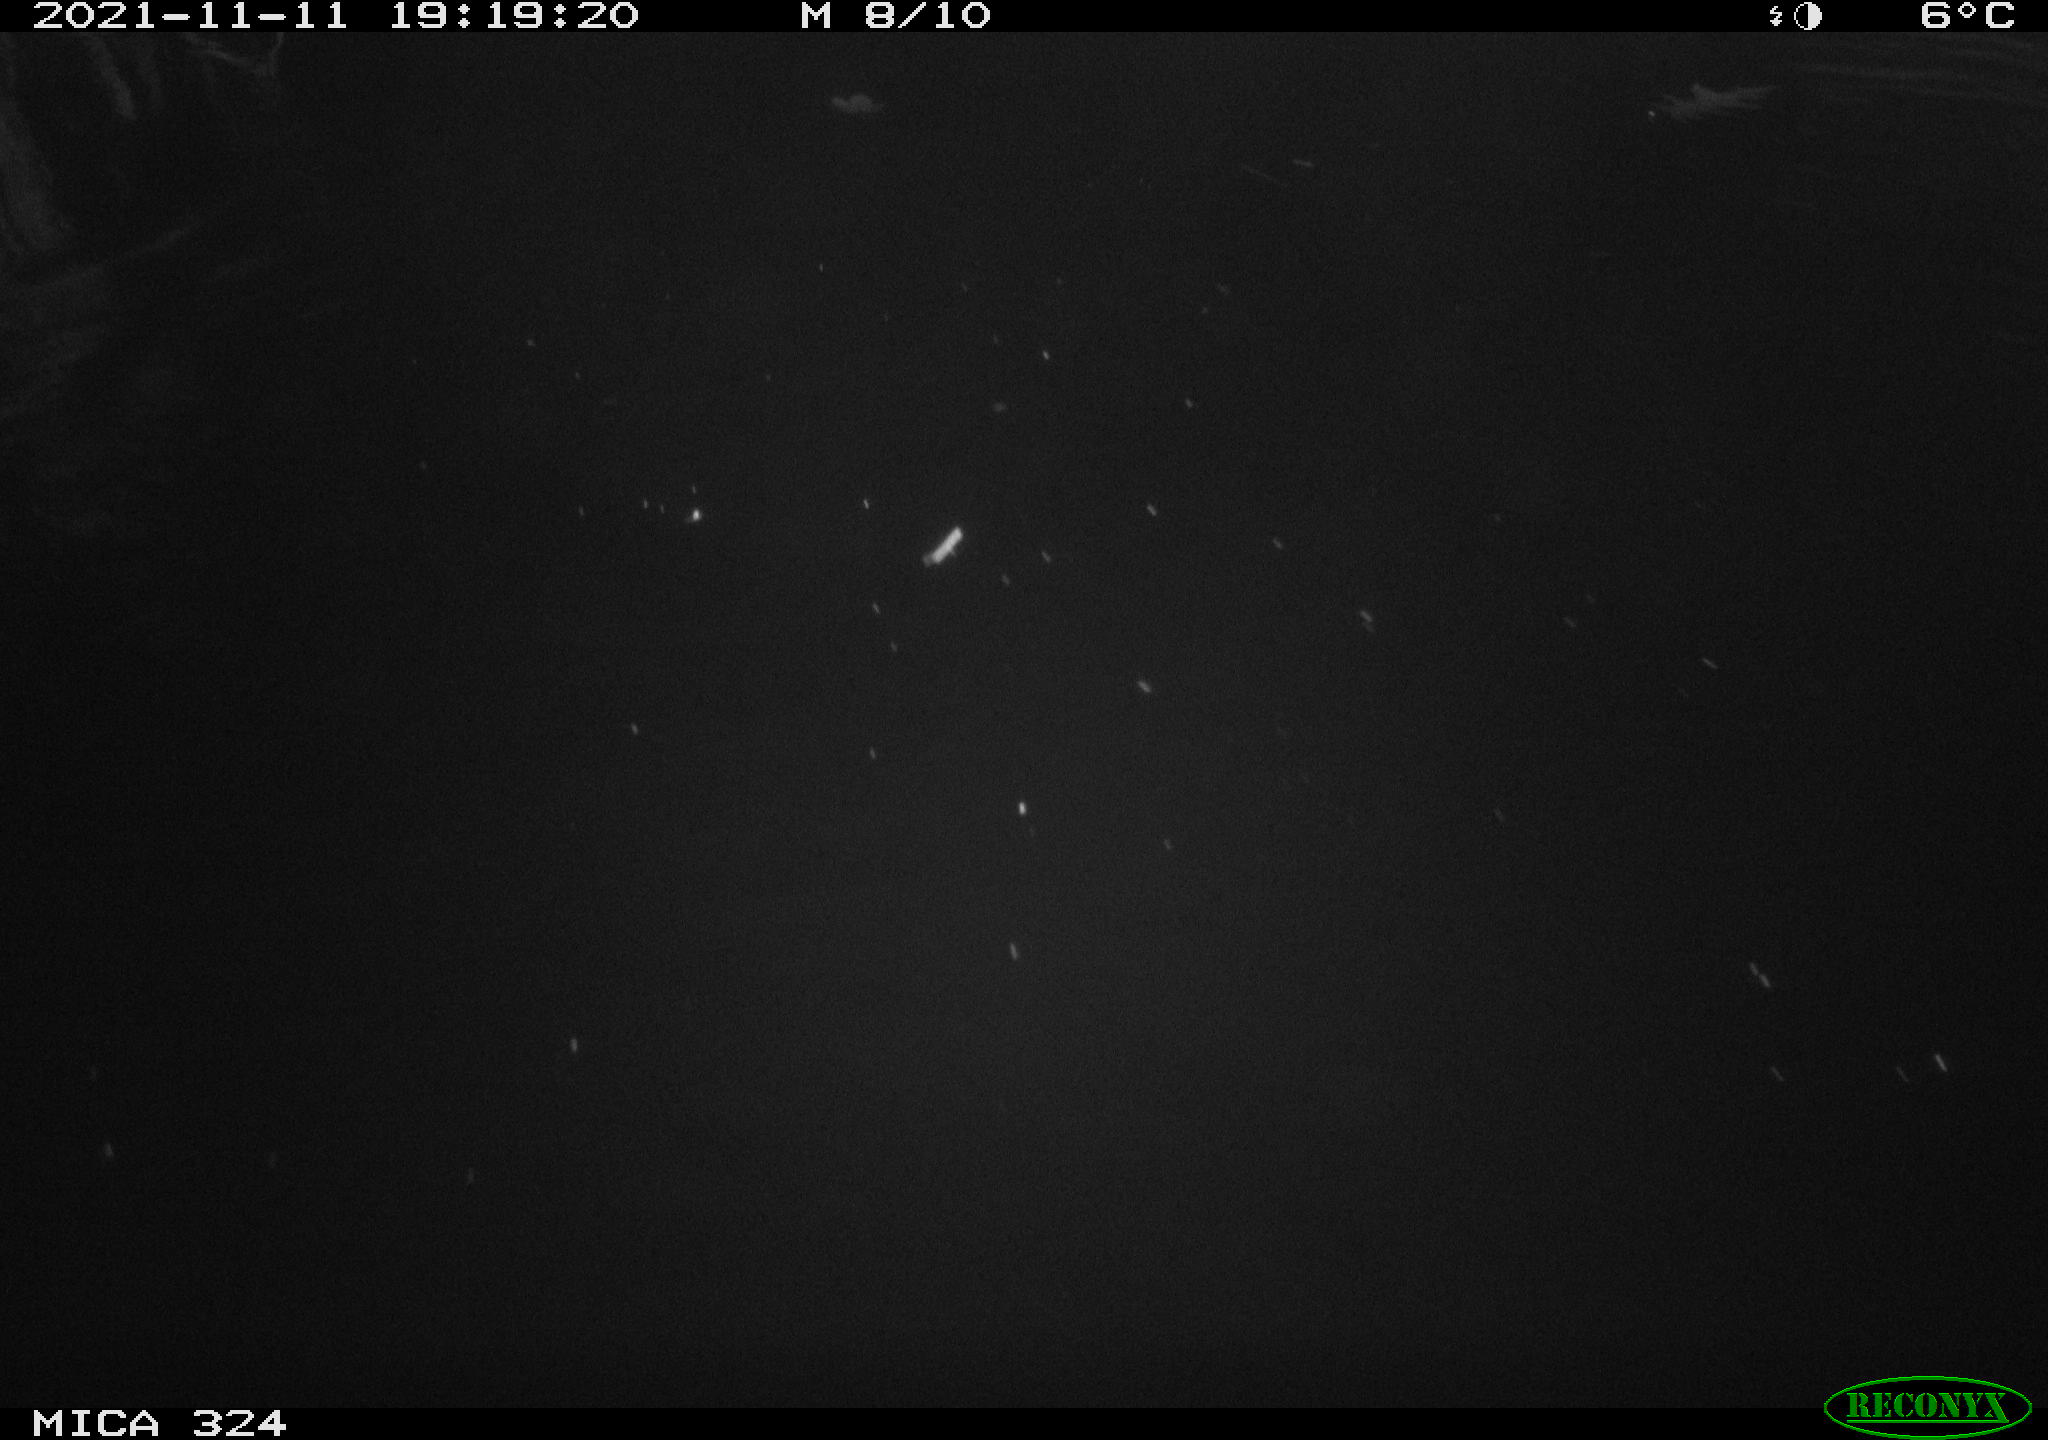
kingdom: Animalia
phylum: Chordata
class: Mammalia
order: Rodentia
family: Myocastoridae
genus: Myocastor
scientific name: Myocastor coypus
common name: Coypu
